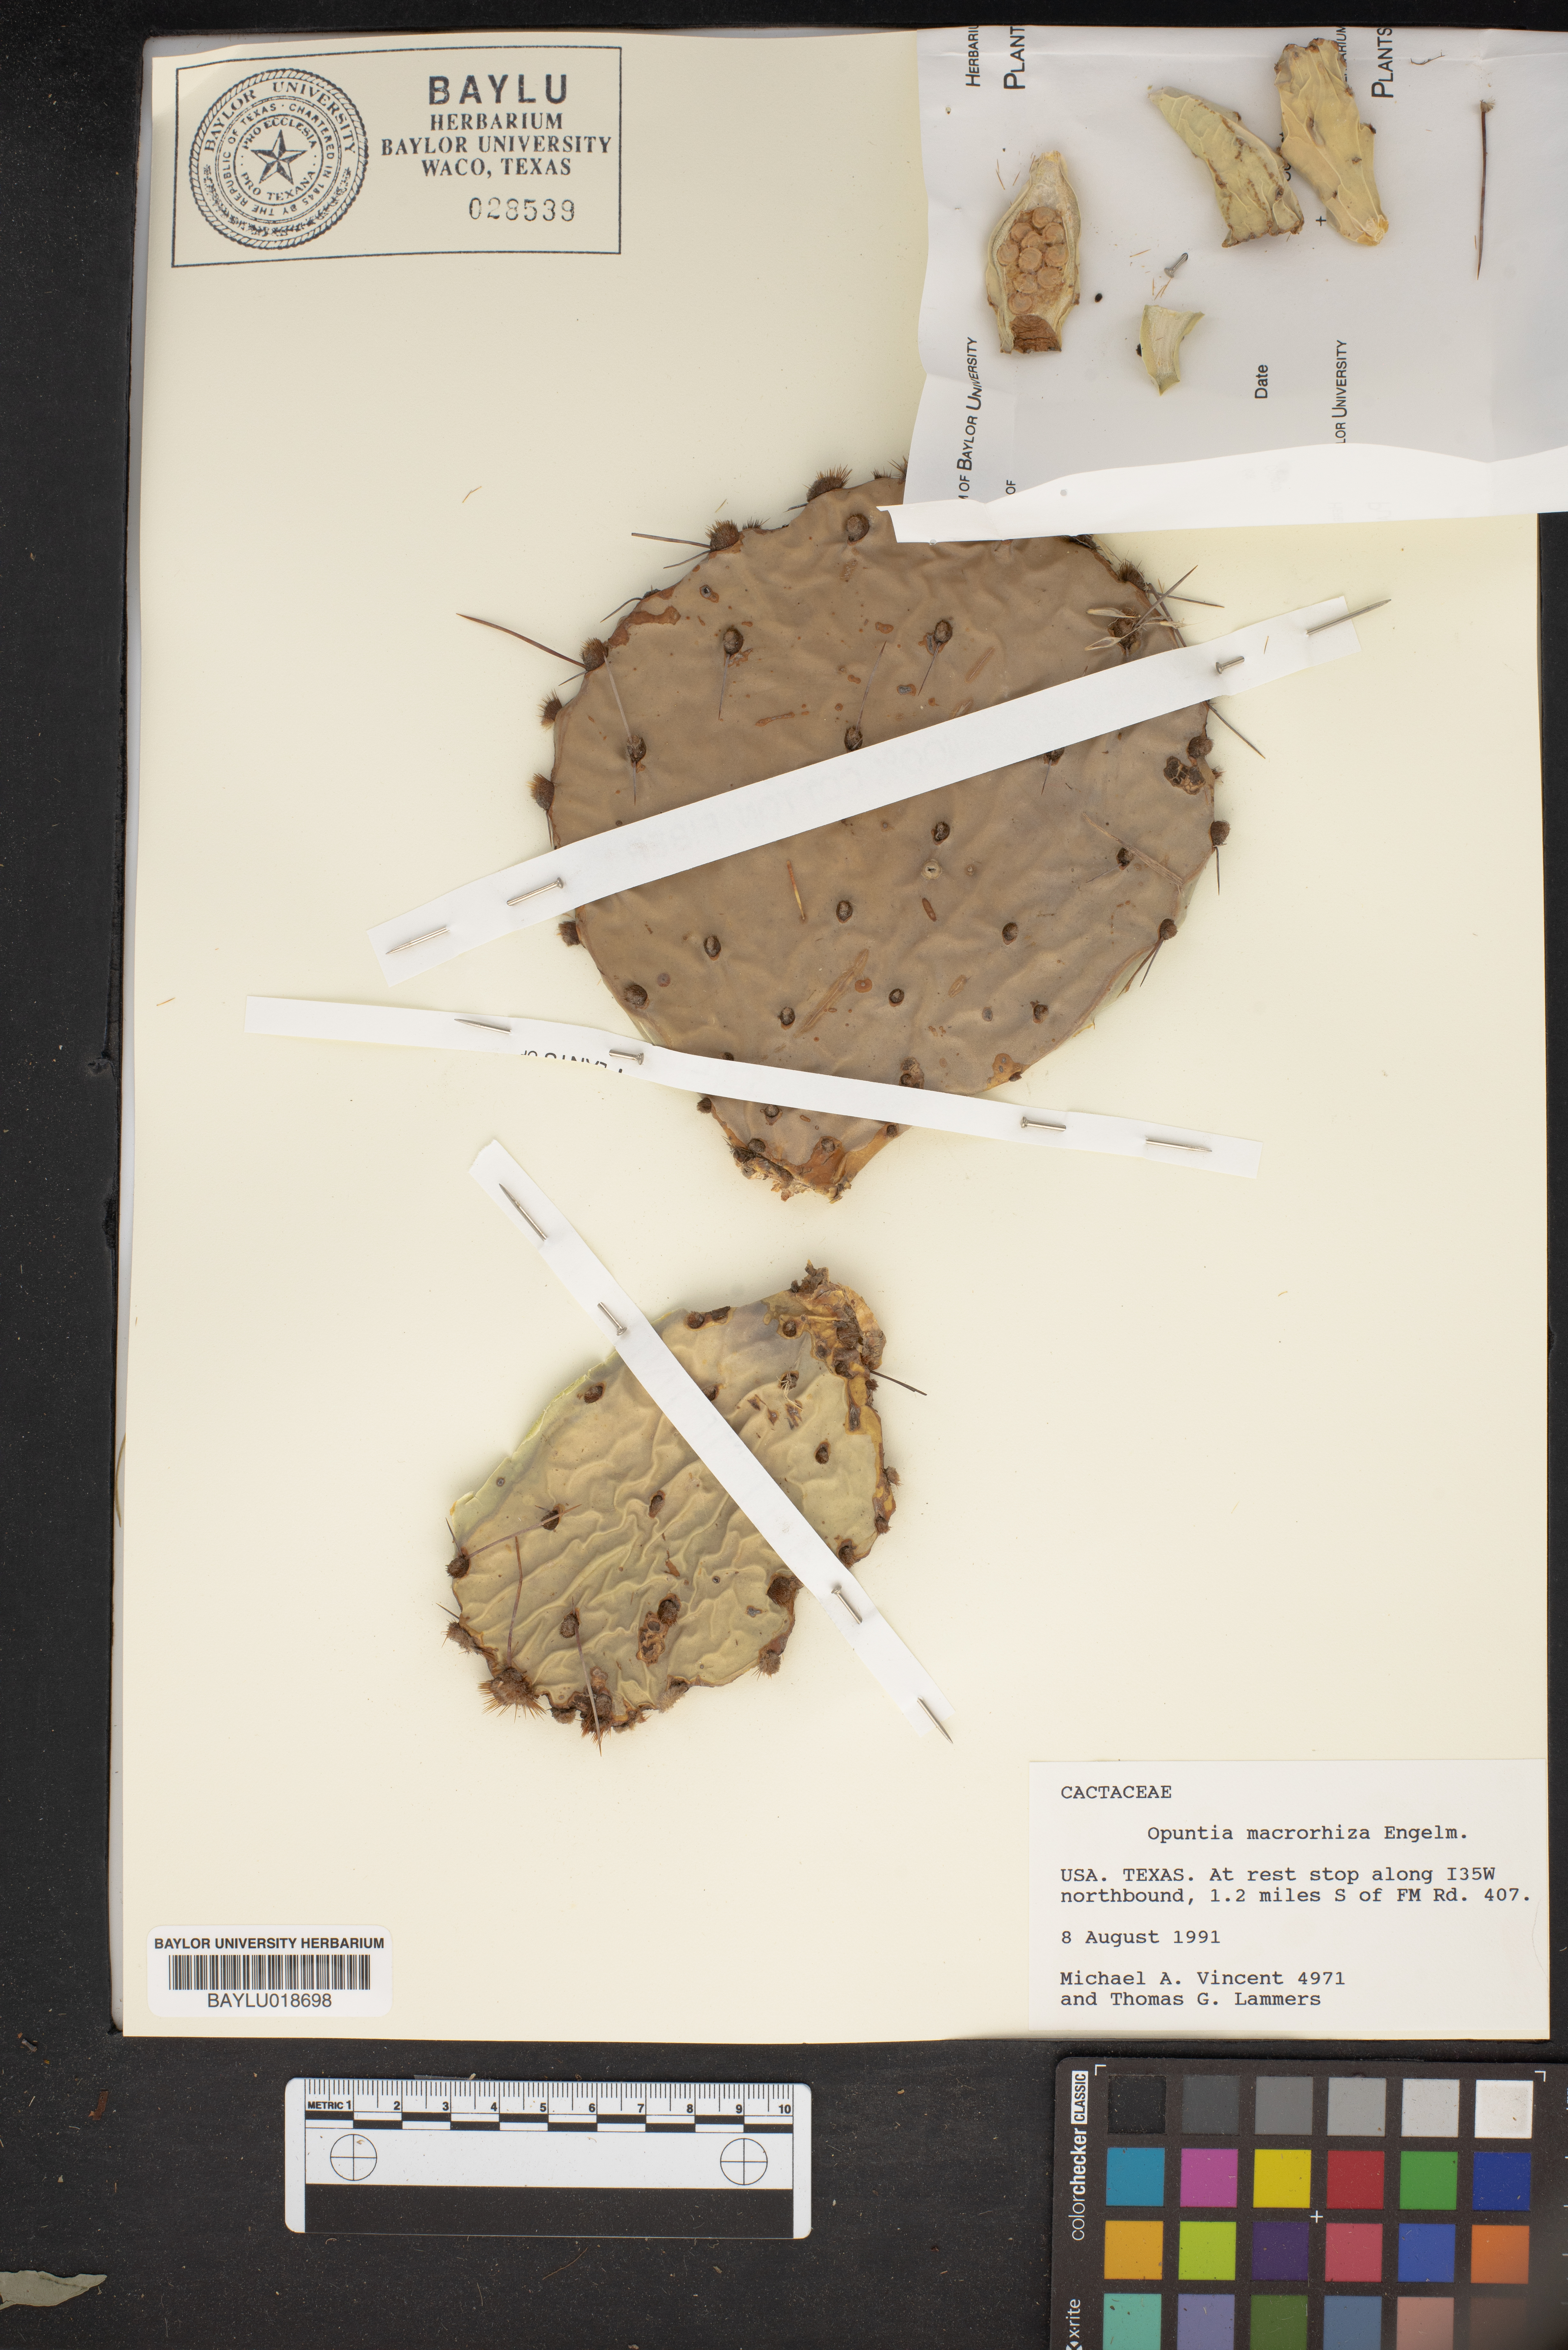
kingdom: Plantae
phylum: Tracheophyta
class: Magnoliopsida
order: Caryophyllales
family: Cactaceae
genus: Opuntia
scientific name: Opuntia macrorhiza
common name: Grassland pricklypear
